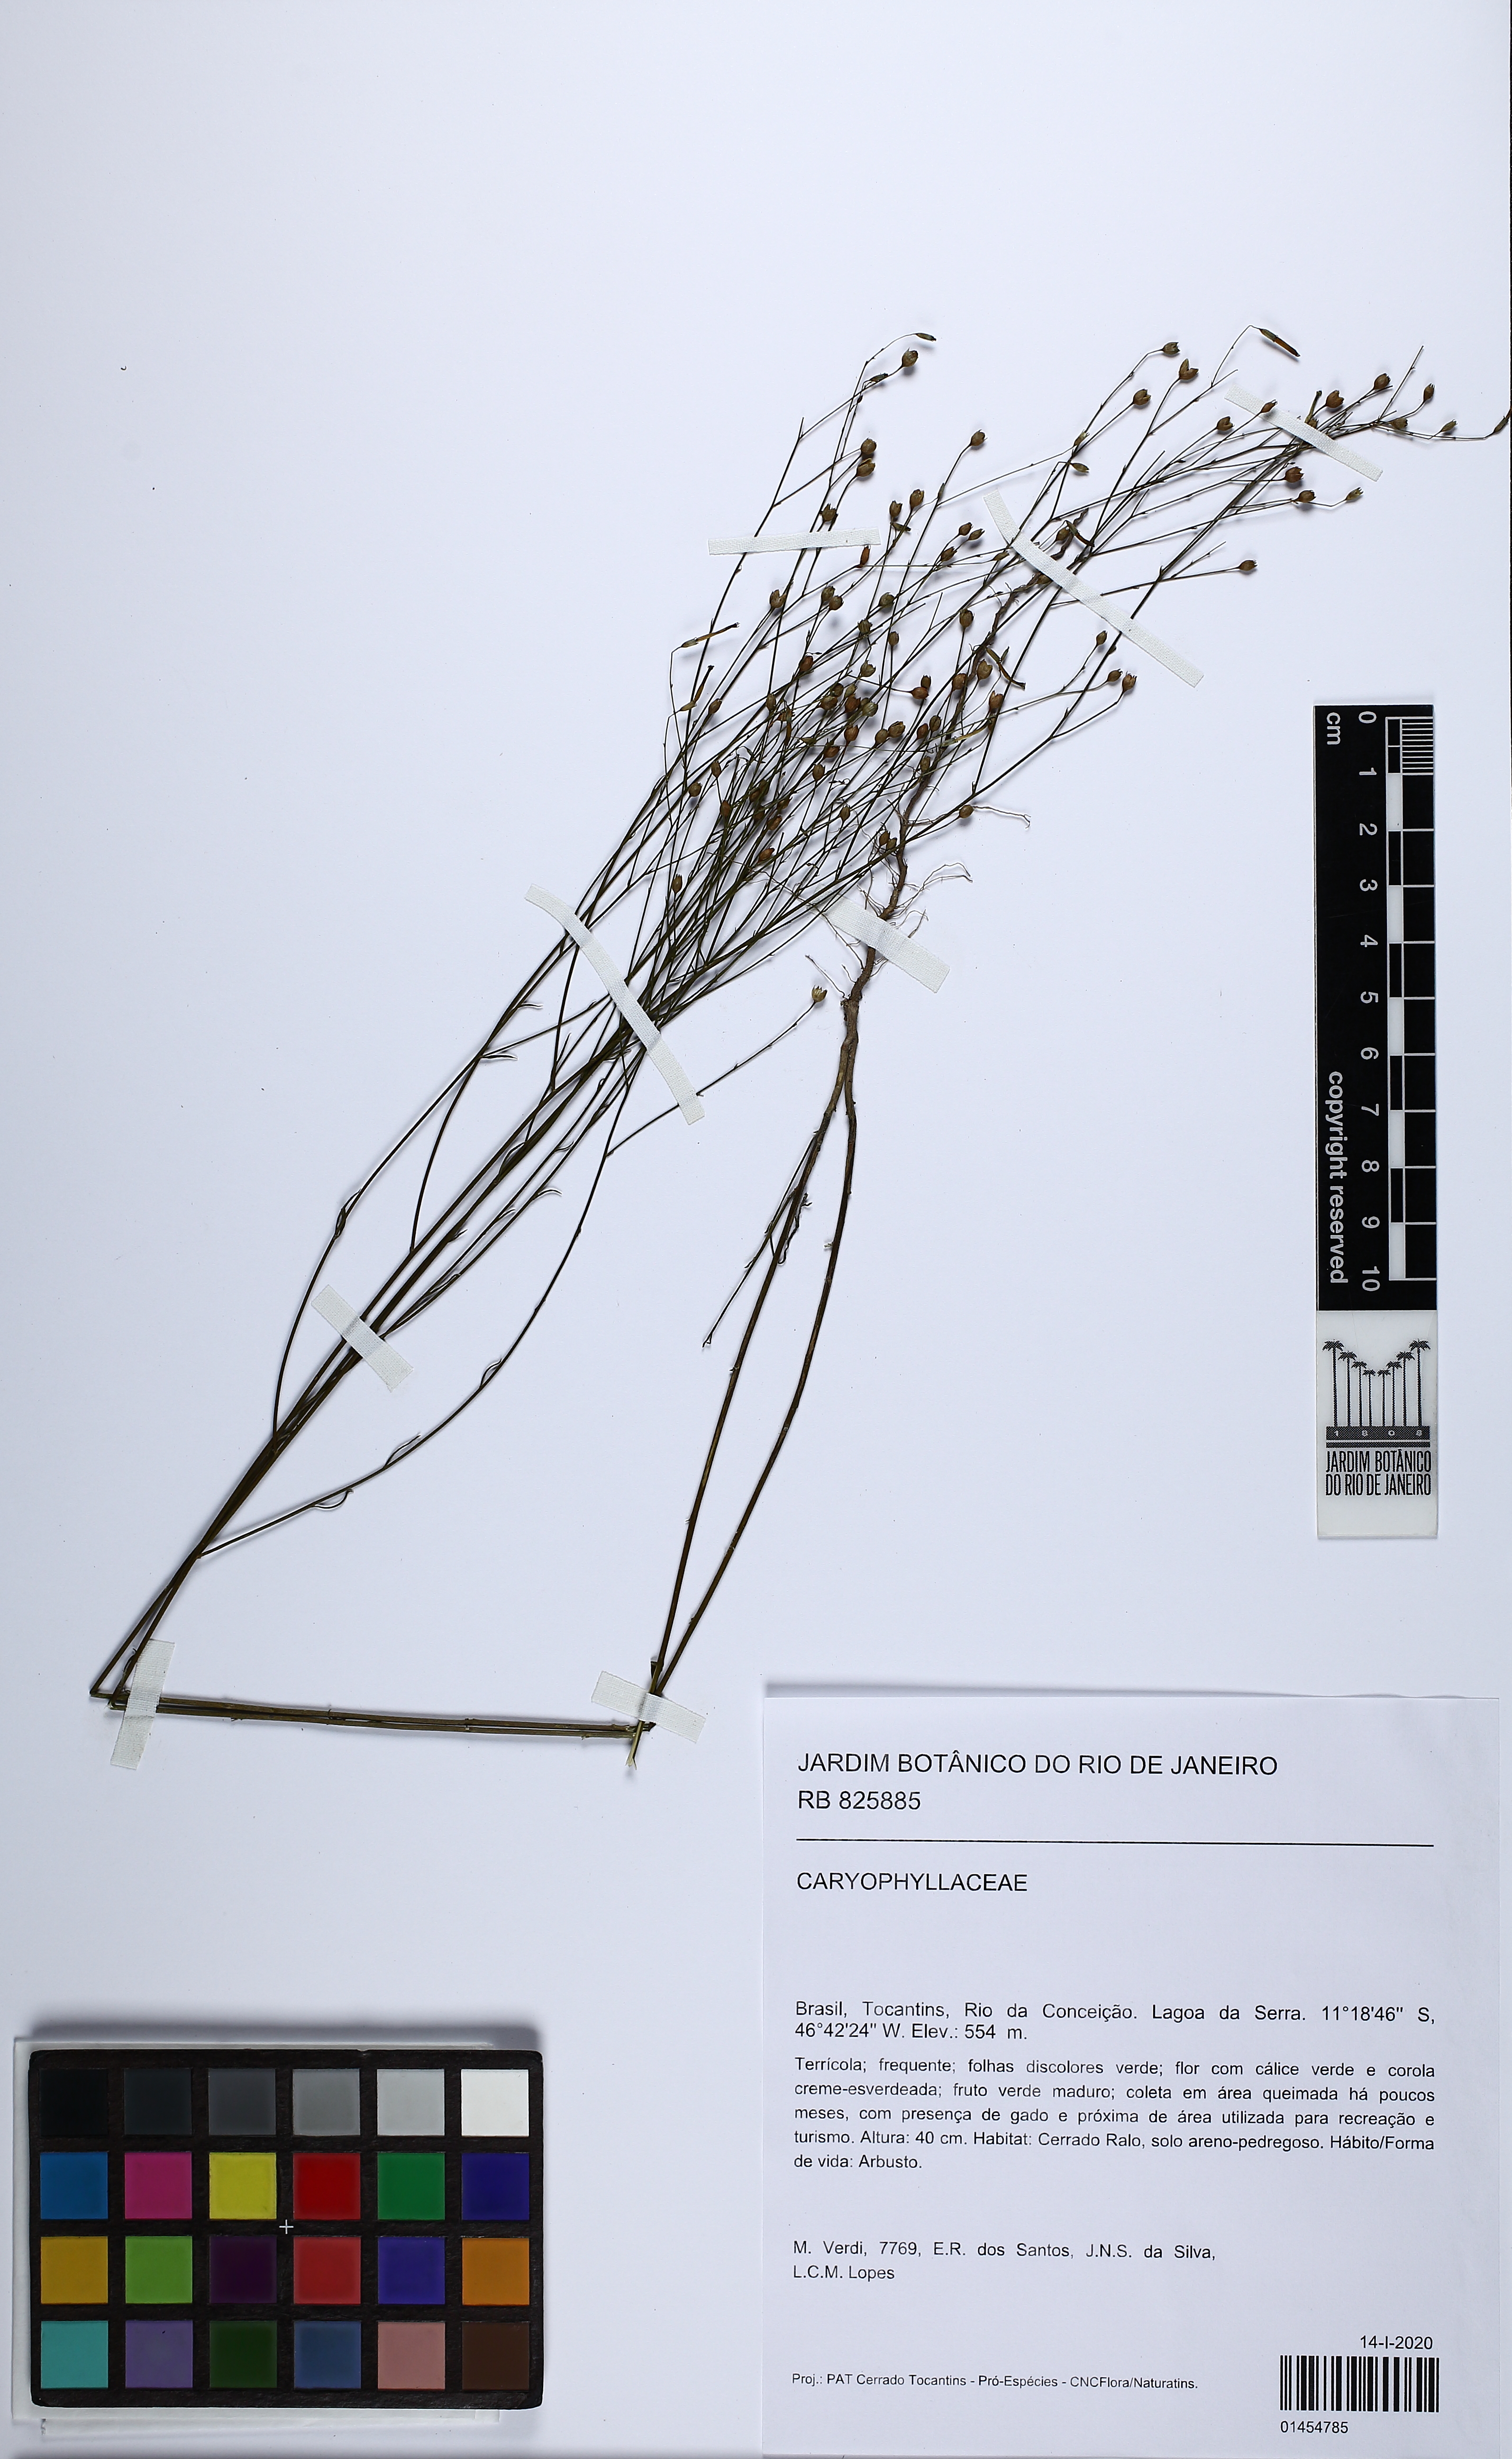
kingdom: Plantae
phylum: Tracheophyta
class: Magnoliopsida
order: Caryophyllales
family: Caryophyllaceae
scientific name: Caryophyllaceae
